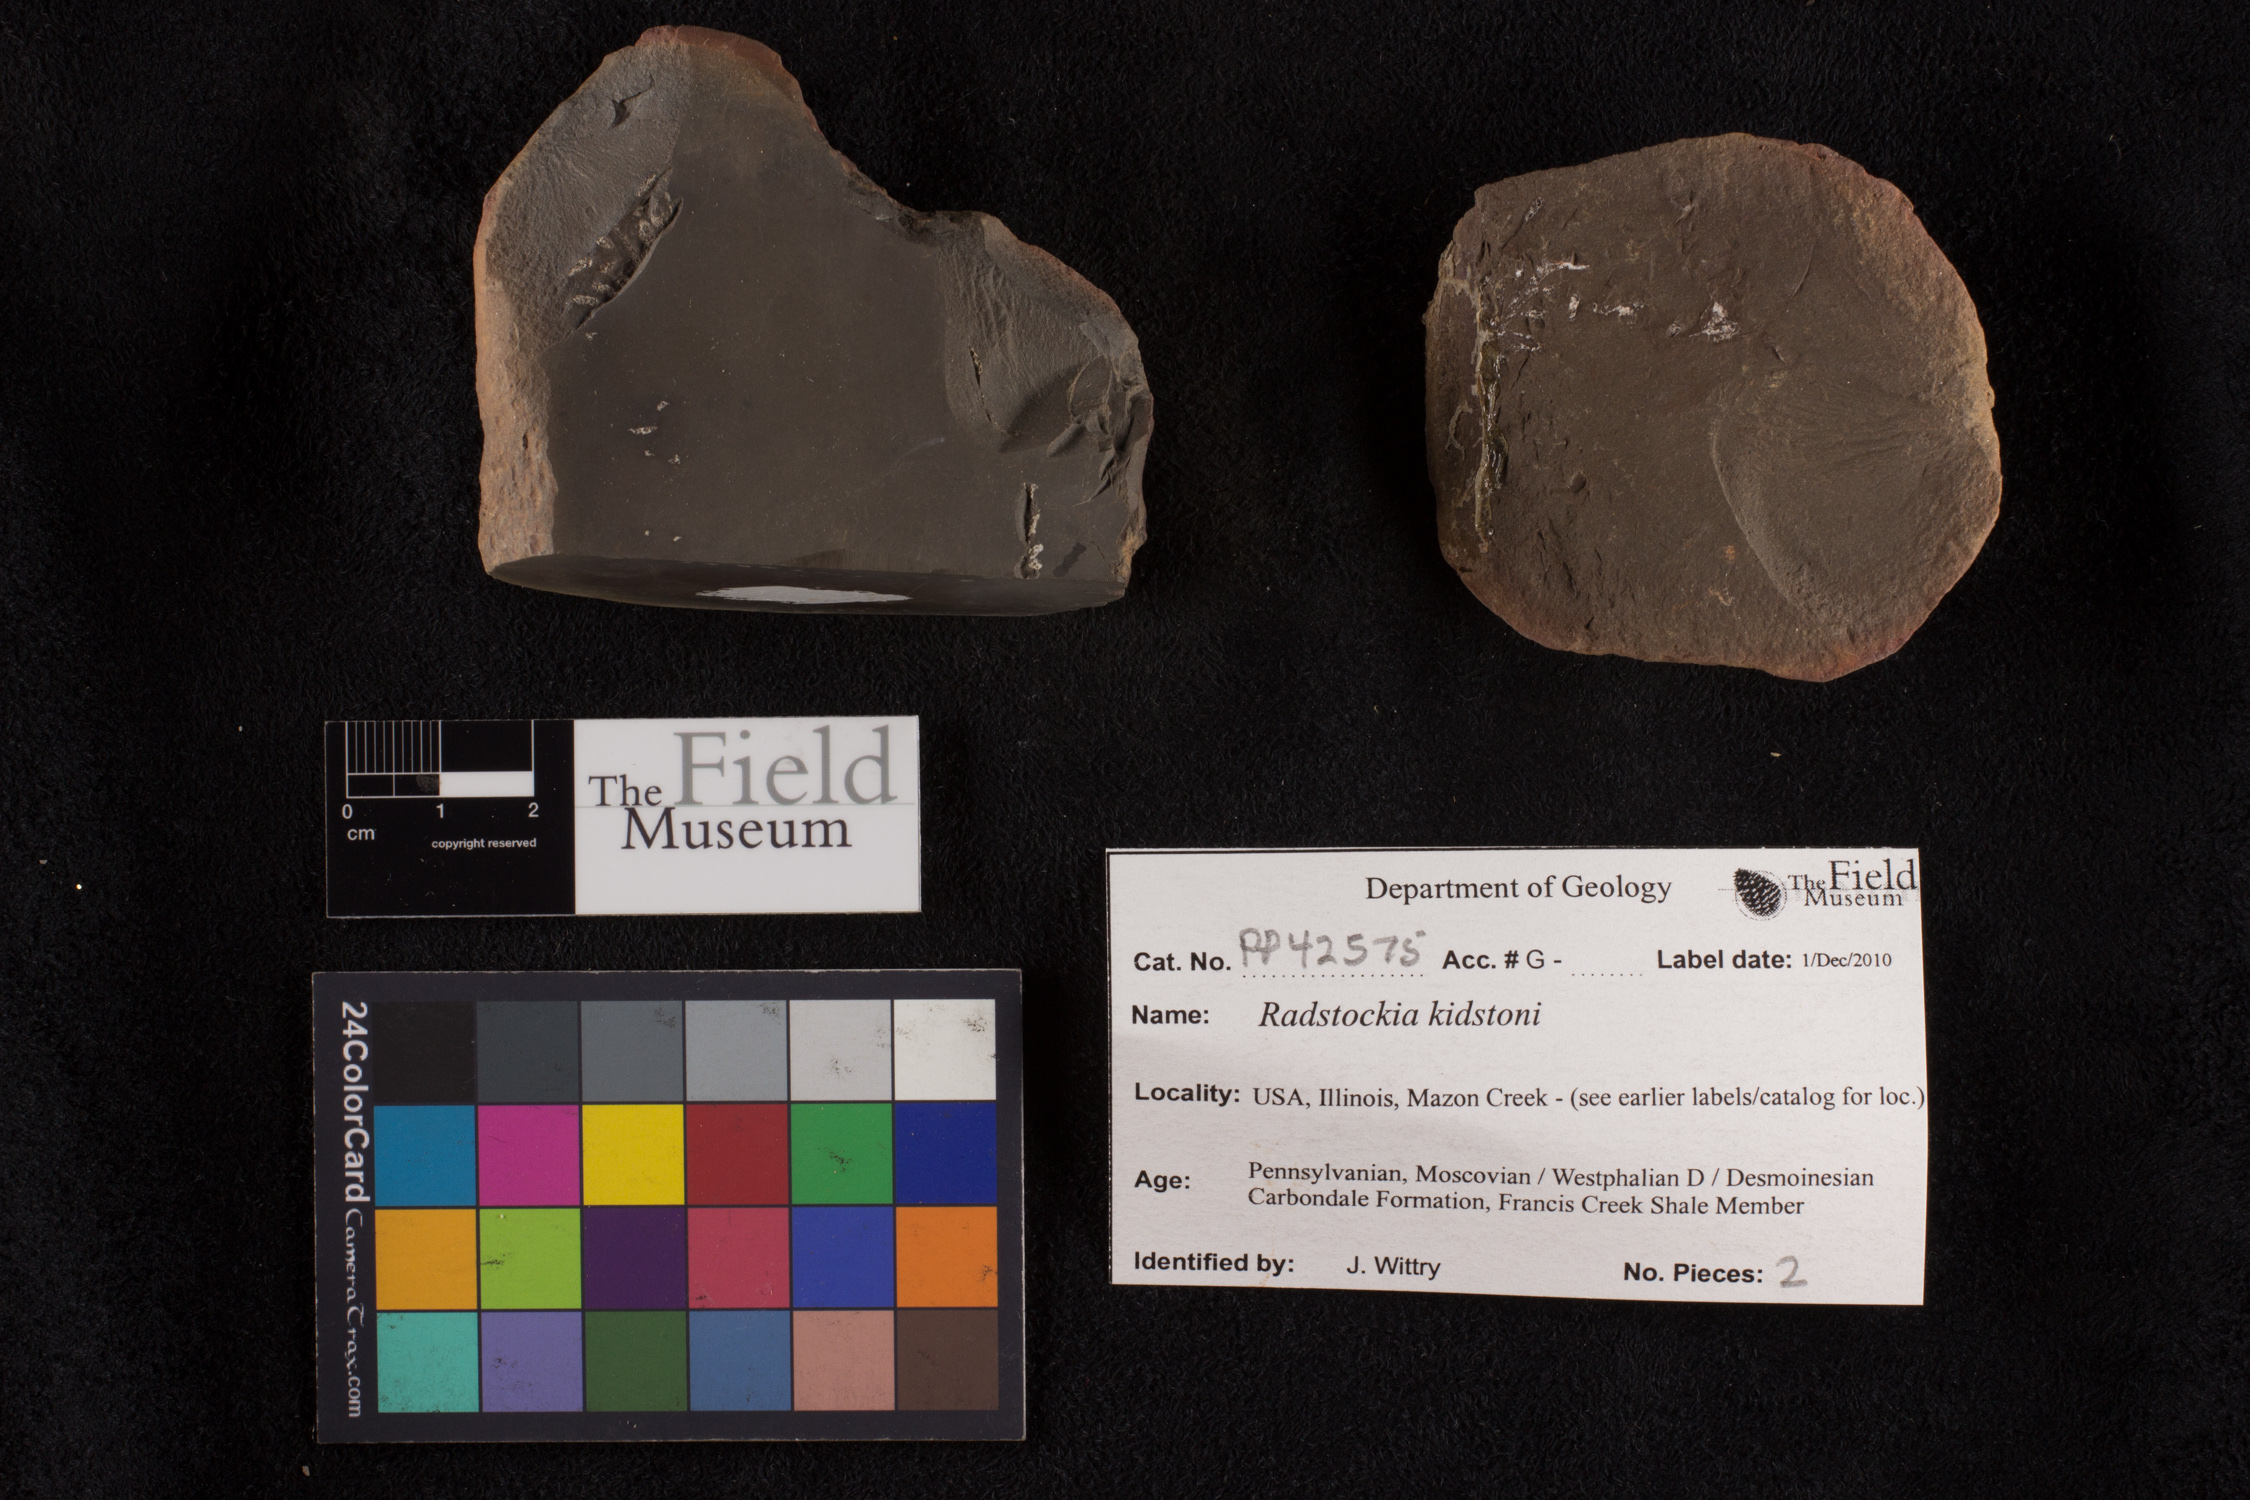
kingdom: Plantae
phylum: Tracheophyta
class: Polypodiopsida
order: Marattiales
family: Asterothecaceae
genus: Radstockia
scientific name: Radstockia
